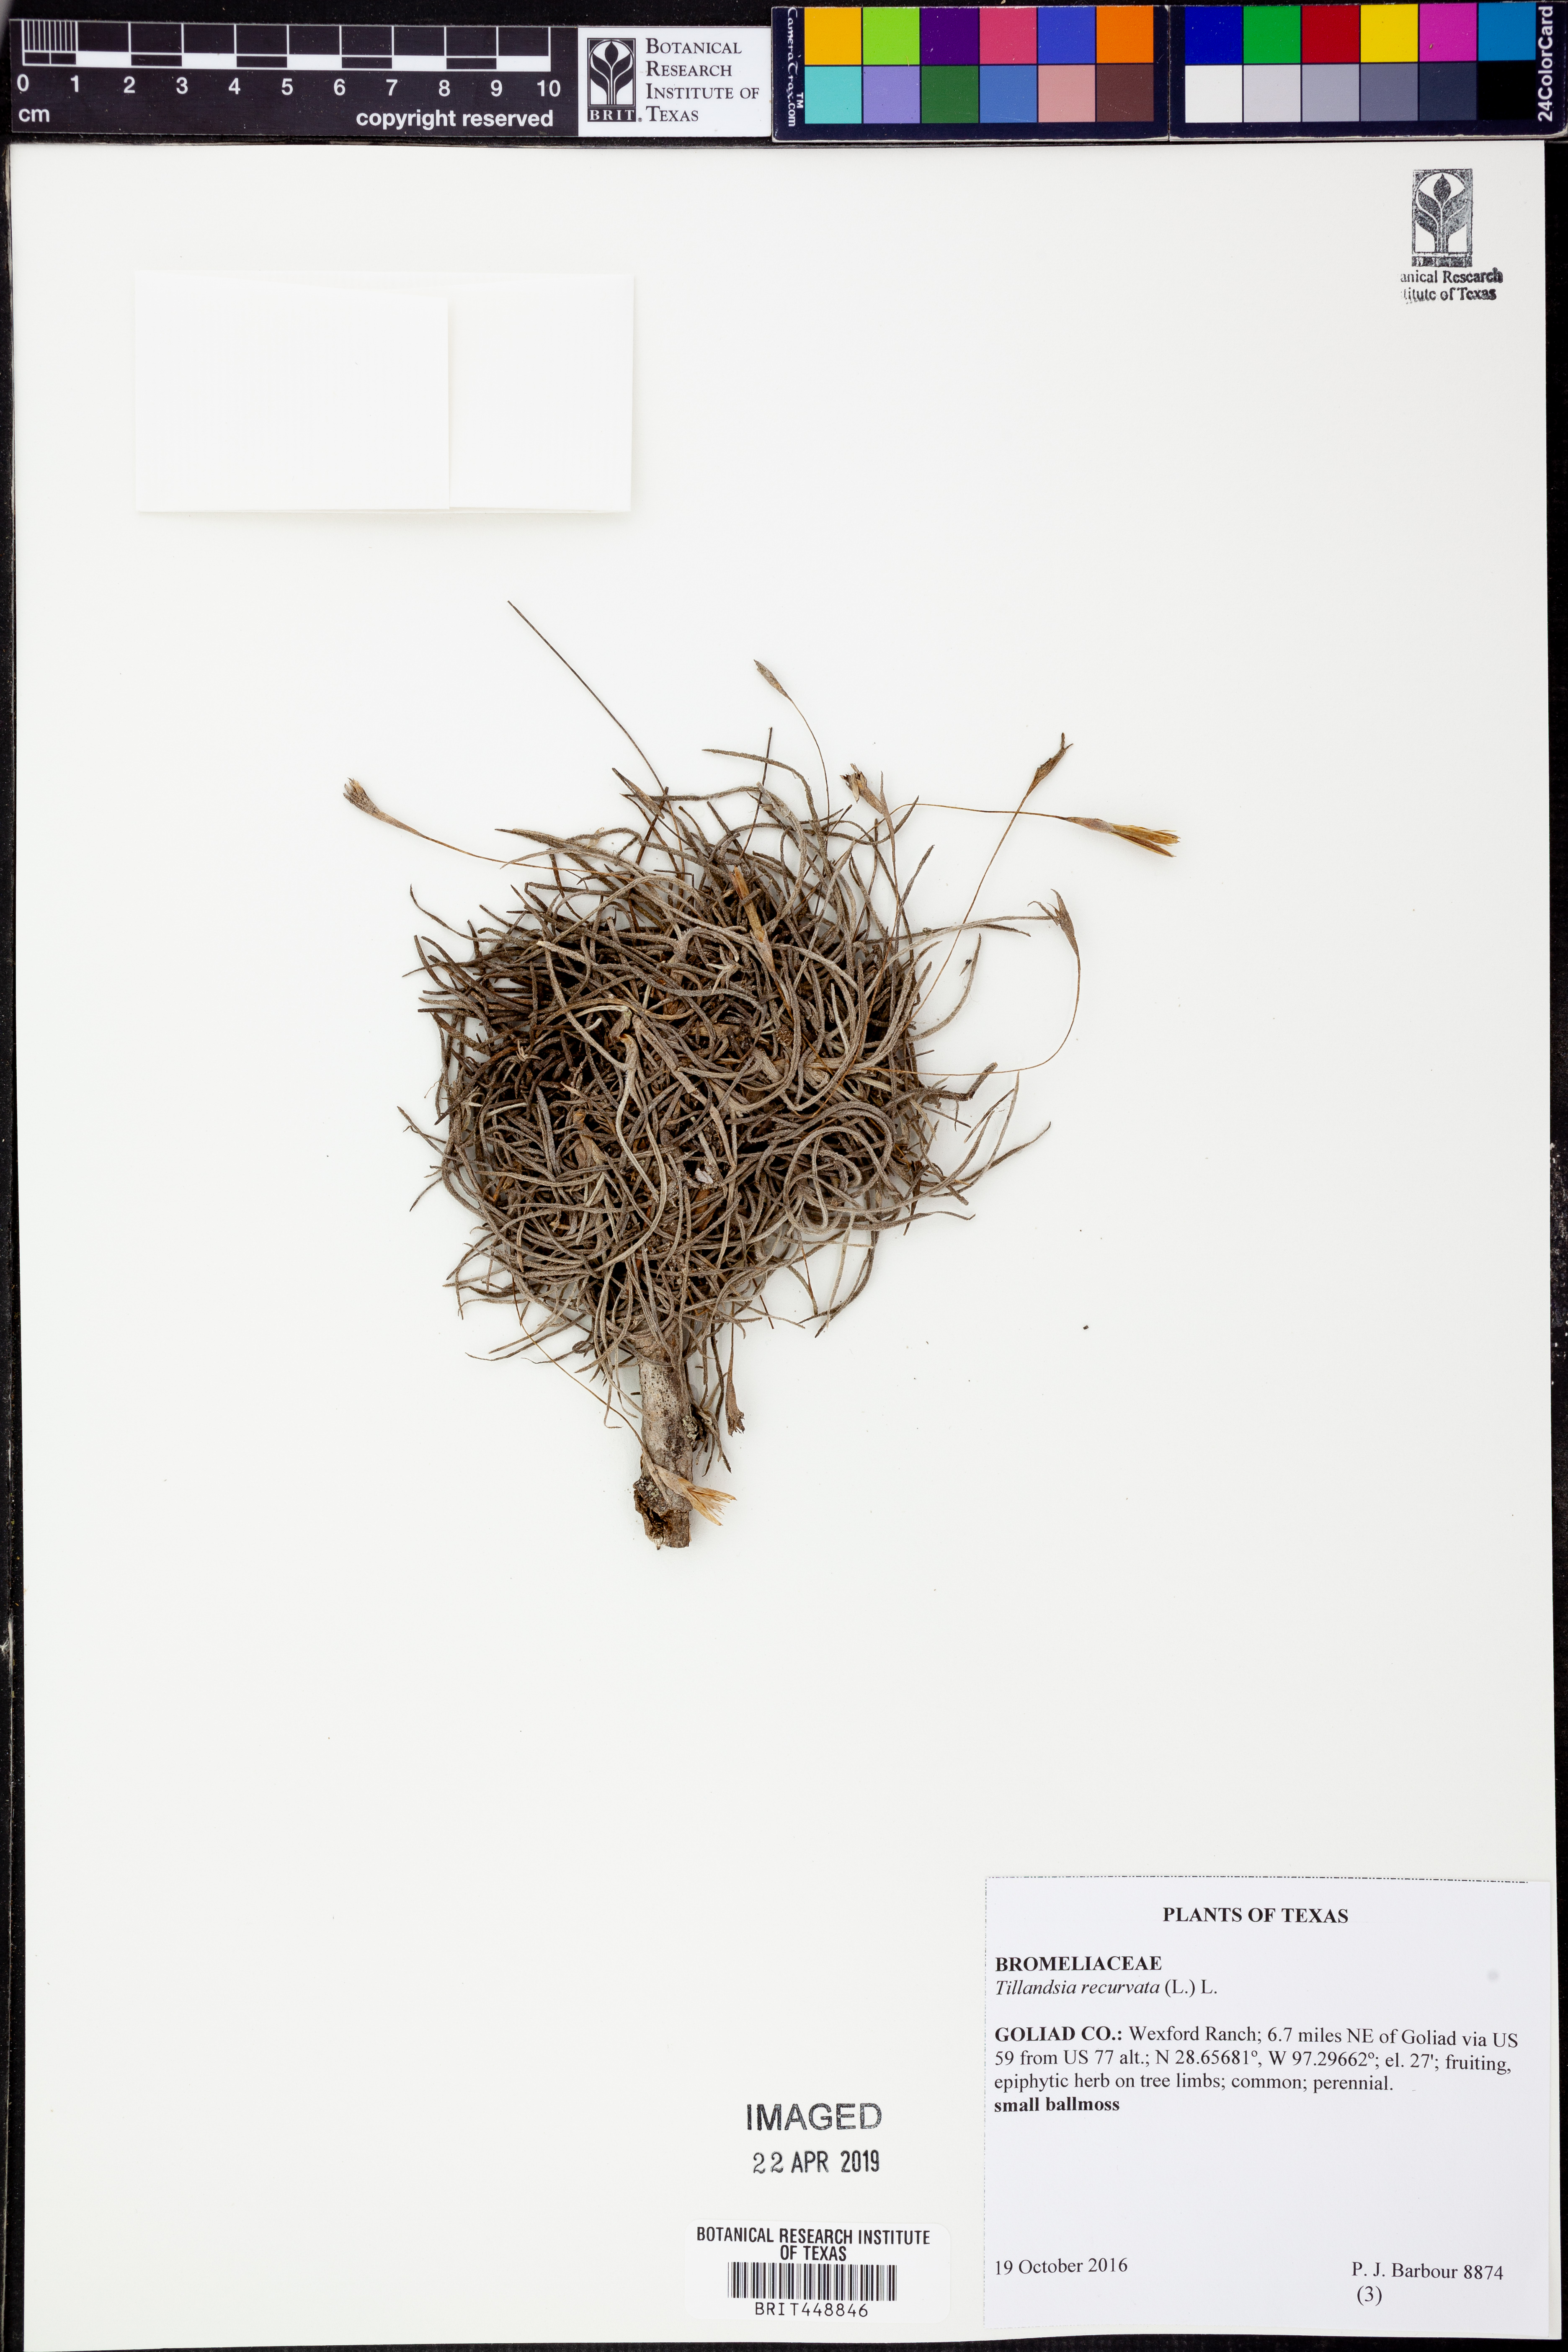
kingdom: Plantae
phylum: Tracheophyta
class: Liliopsida
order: Poales
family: Bromeliaceae
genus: Tillandsia
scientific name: Tillandsia recurvata
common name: Small ballmoss
